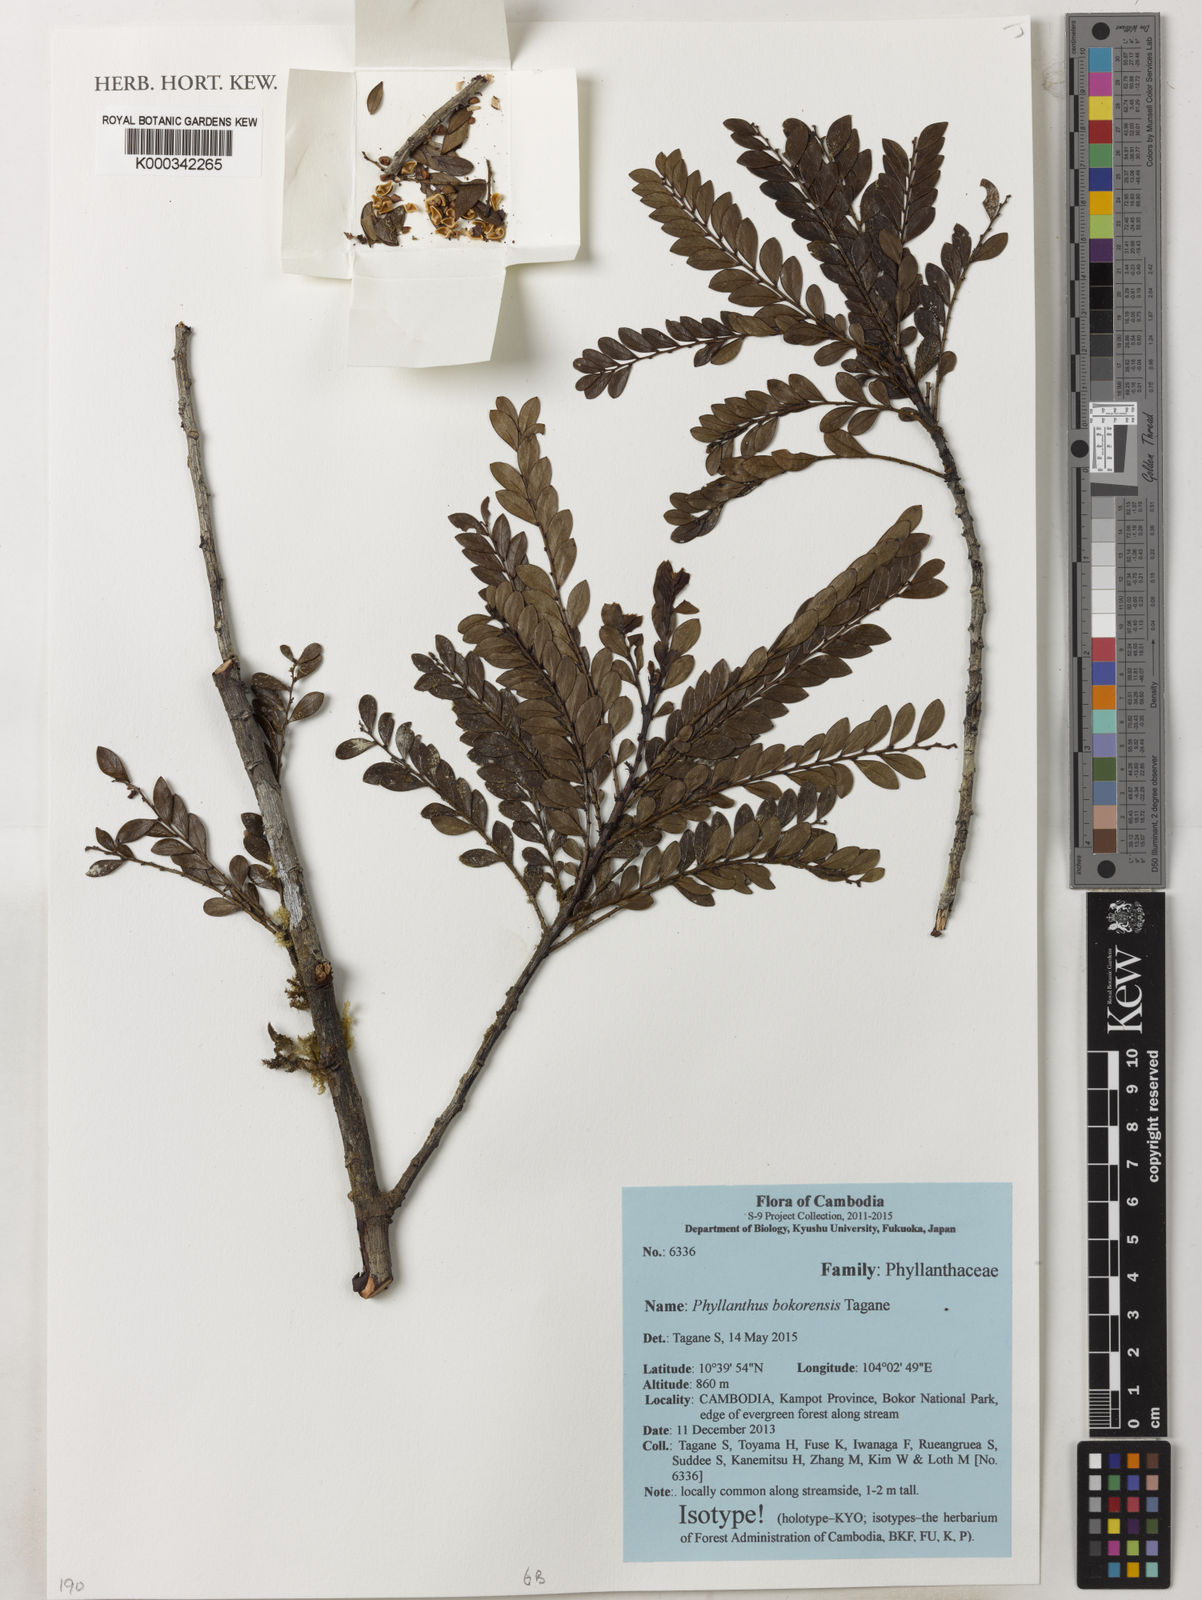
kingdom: Plantae
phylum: Tracheophyta
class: Magnoliopsida
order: Malpighiales
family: Phyllanthaceae
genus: Phyllanthus
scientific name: Phyllanthus bokorensis
